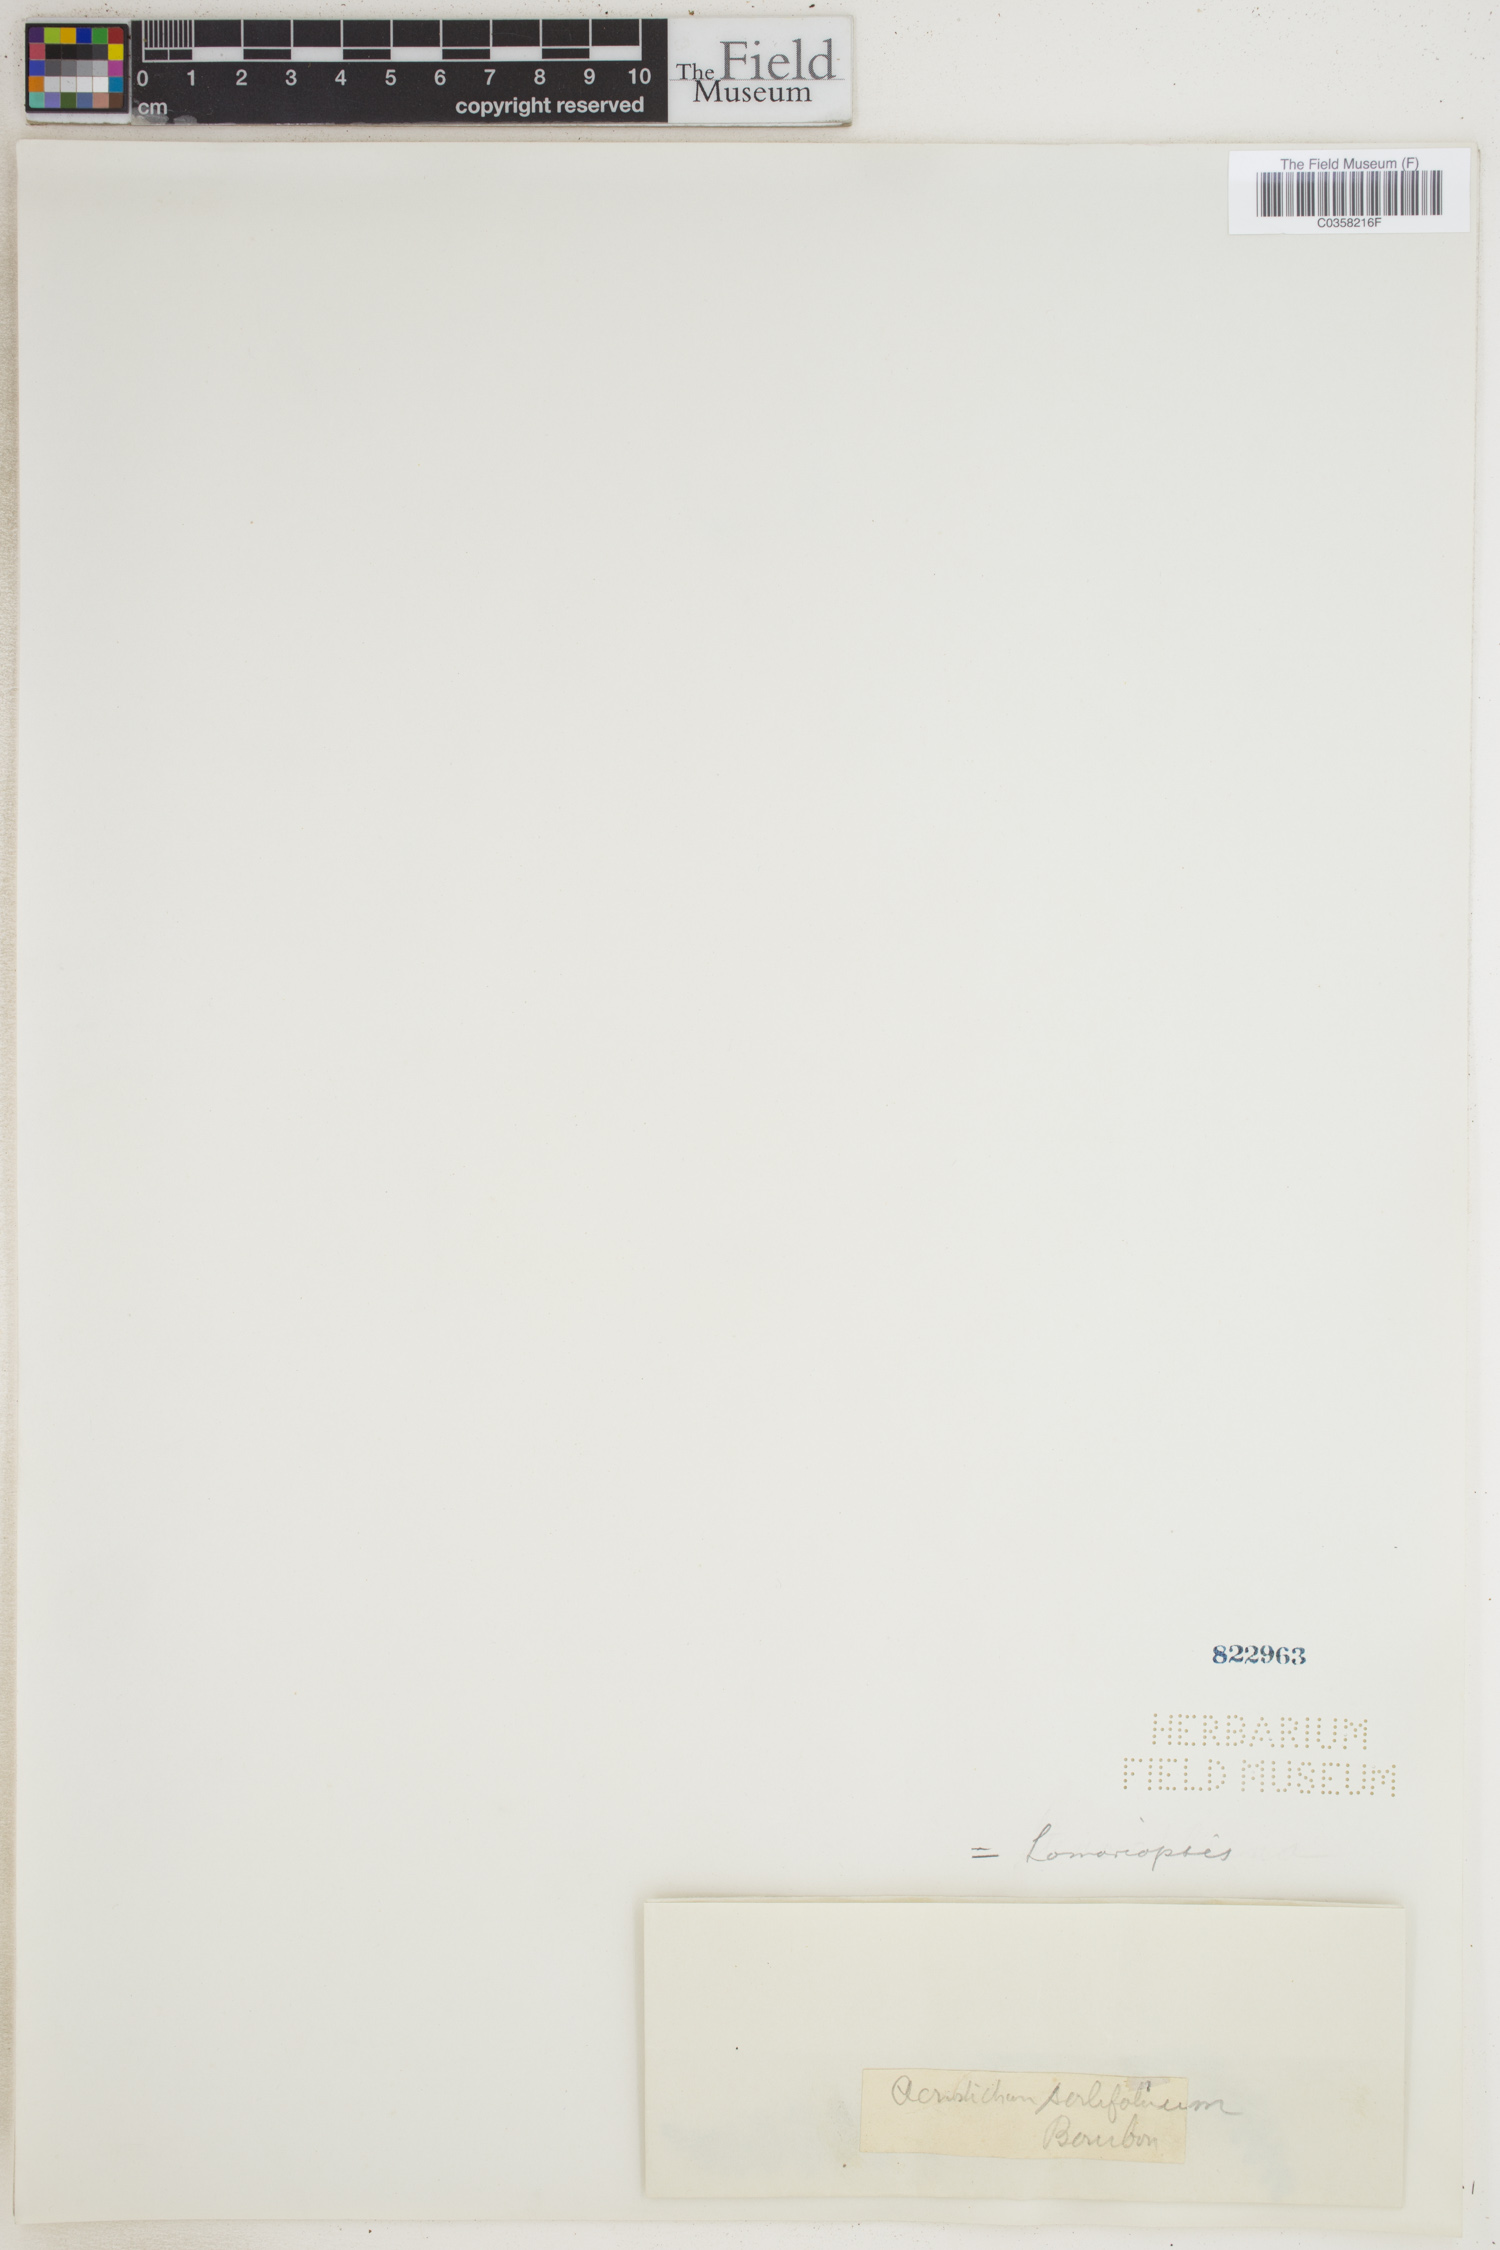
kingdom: Plantae
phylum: Tracheophyta
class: Polypodiopsida
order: Polypodiales
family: Lomariopsidaceae
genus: Lomariopsis
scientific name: Lomariopsis sorbifolia
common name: Acacia fringedfern
